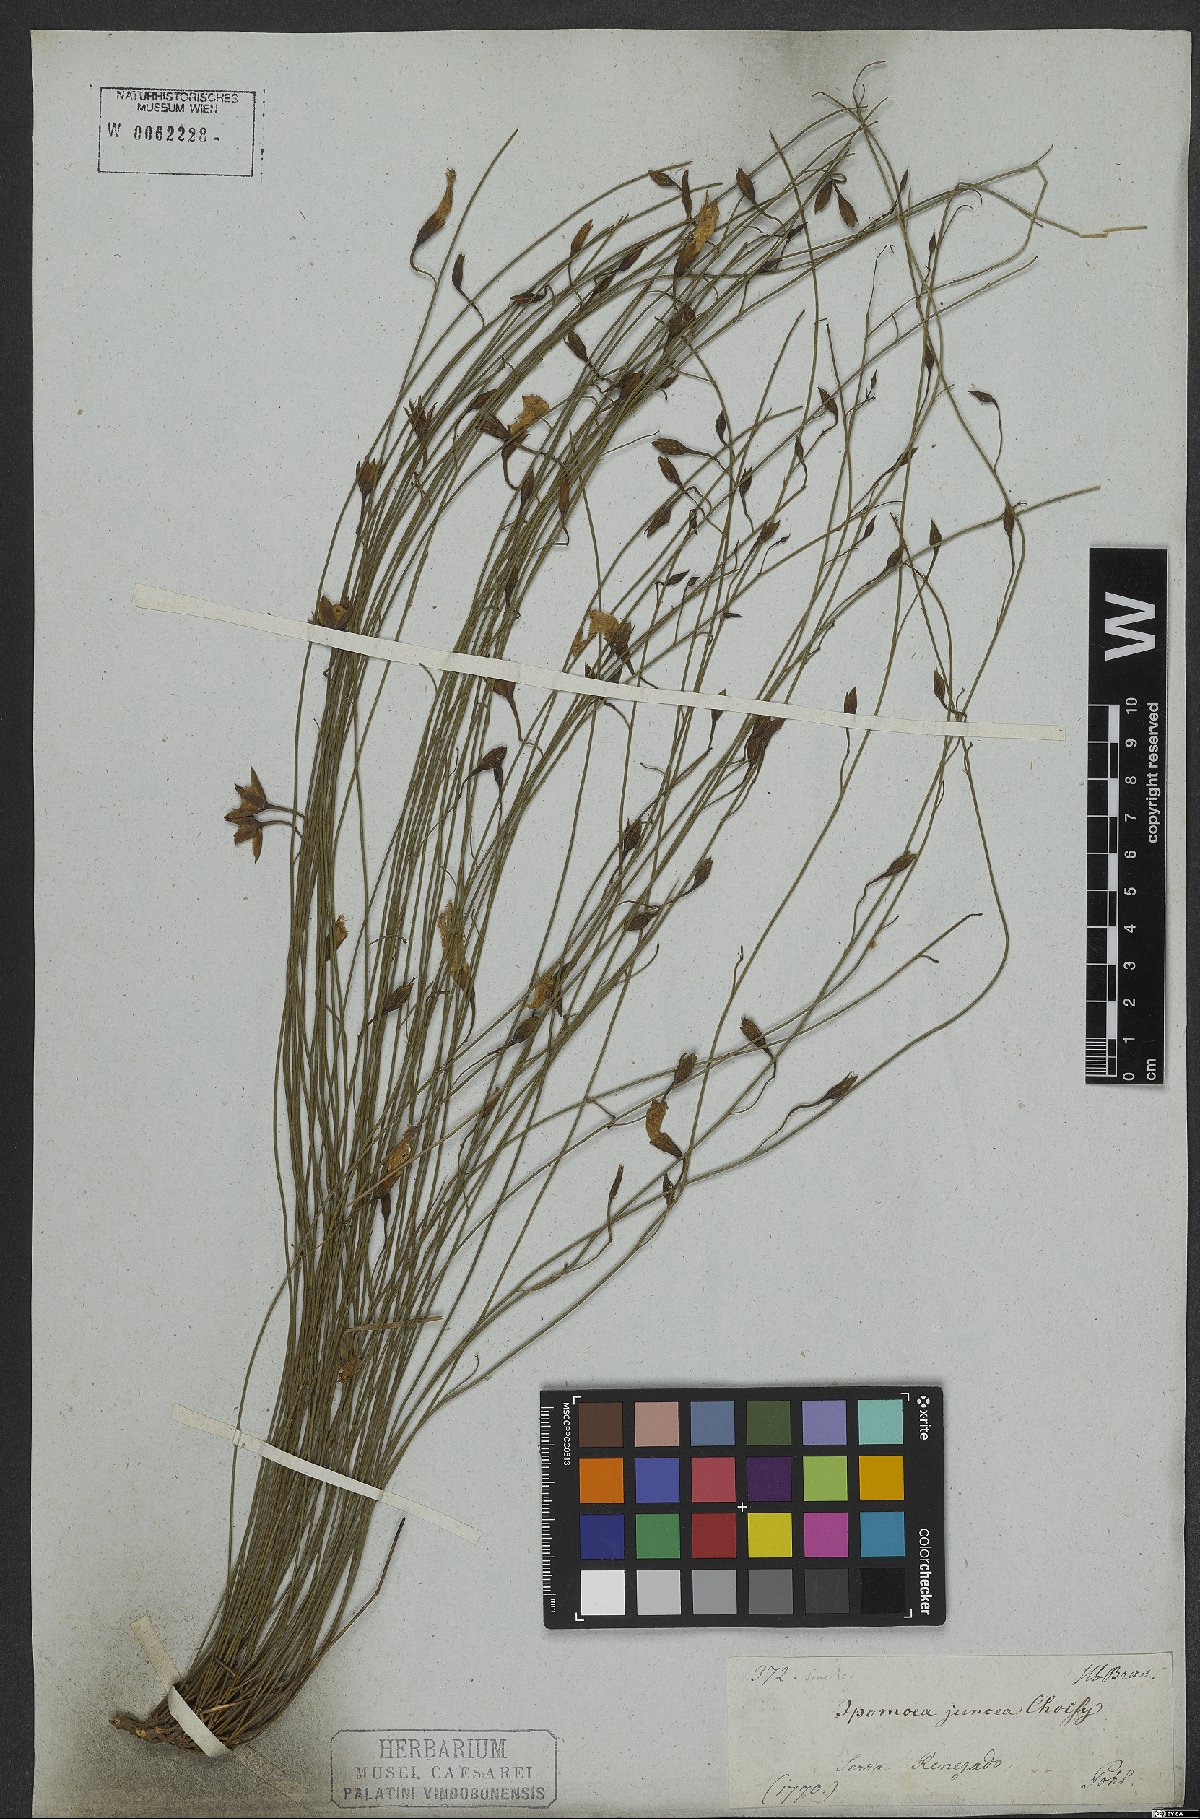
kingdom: Plantae
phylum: Tracheophyta
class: Magnoliopsida
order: Solanales
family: Convolvulaceae
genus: Distimake
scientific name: Distimake aturensis
